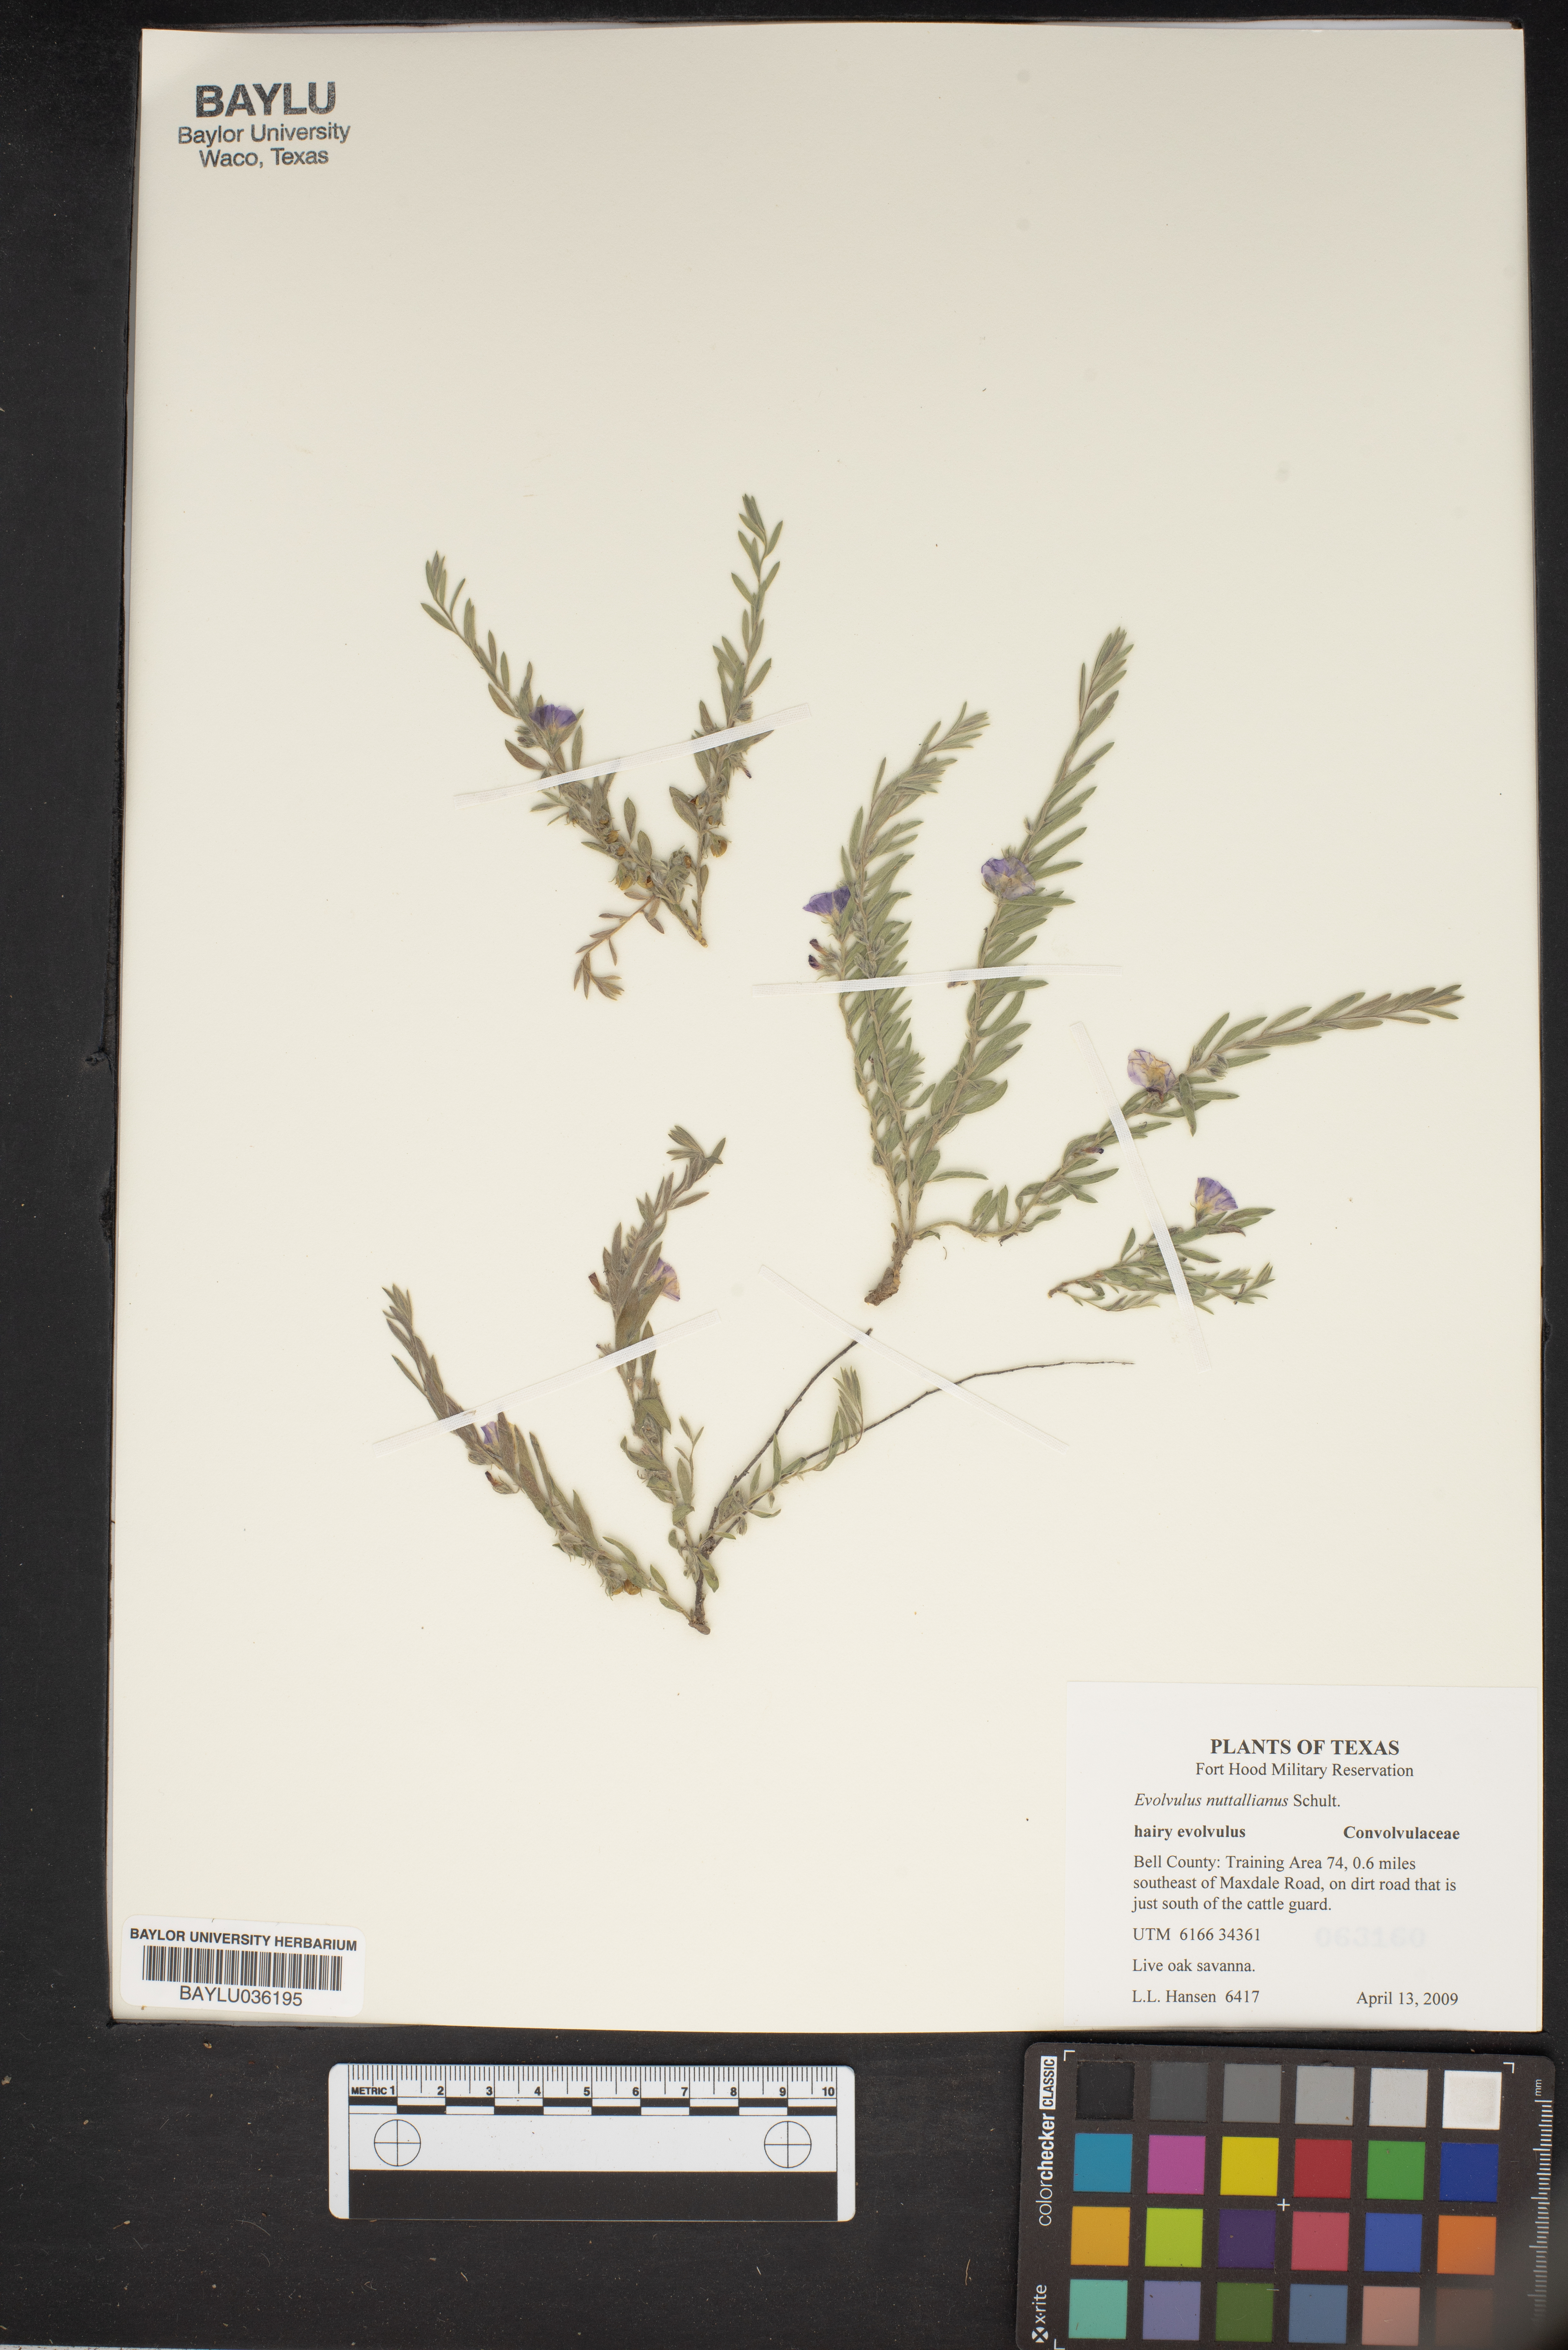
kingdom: Plantae
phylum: Tracheophyta
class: Magnoliopsida
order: Solanales
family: Convolvulaceae
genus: Evolvulus
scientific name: Evolvulus nuttallianus
